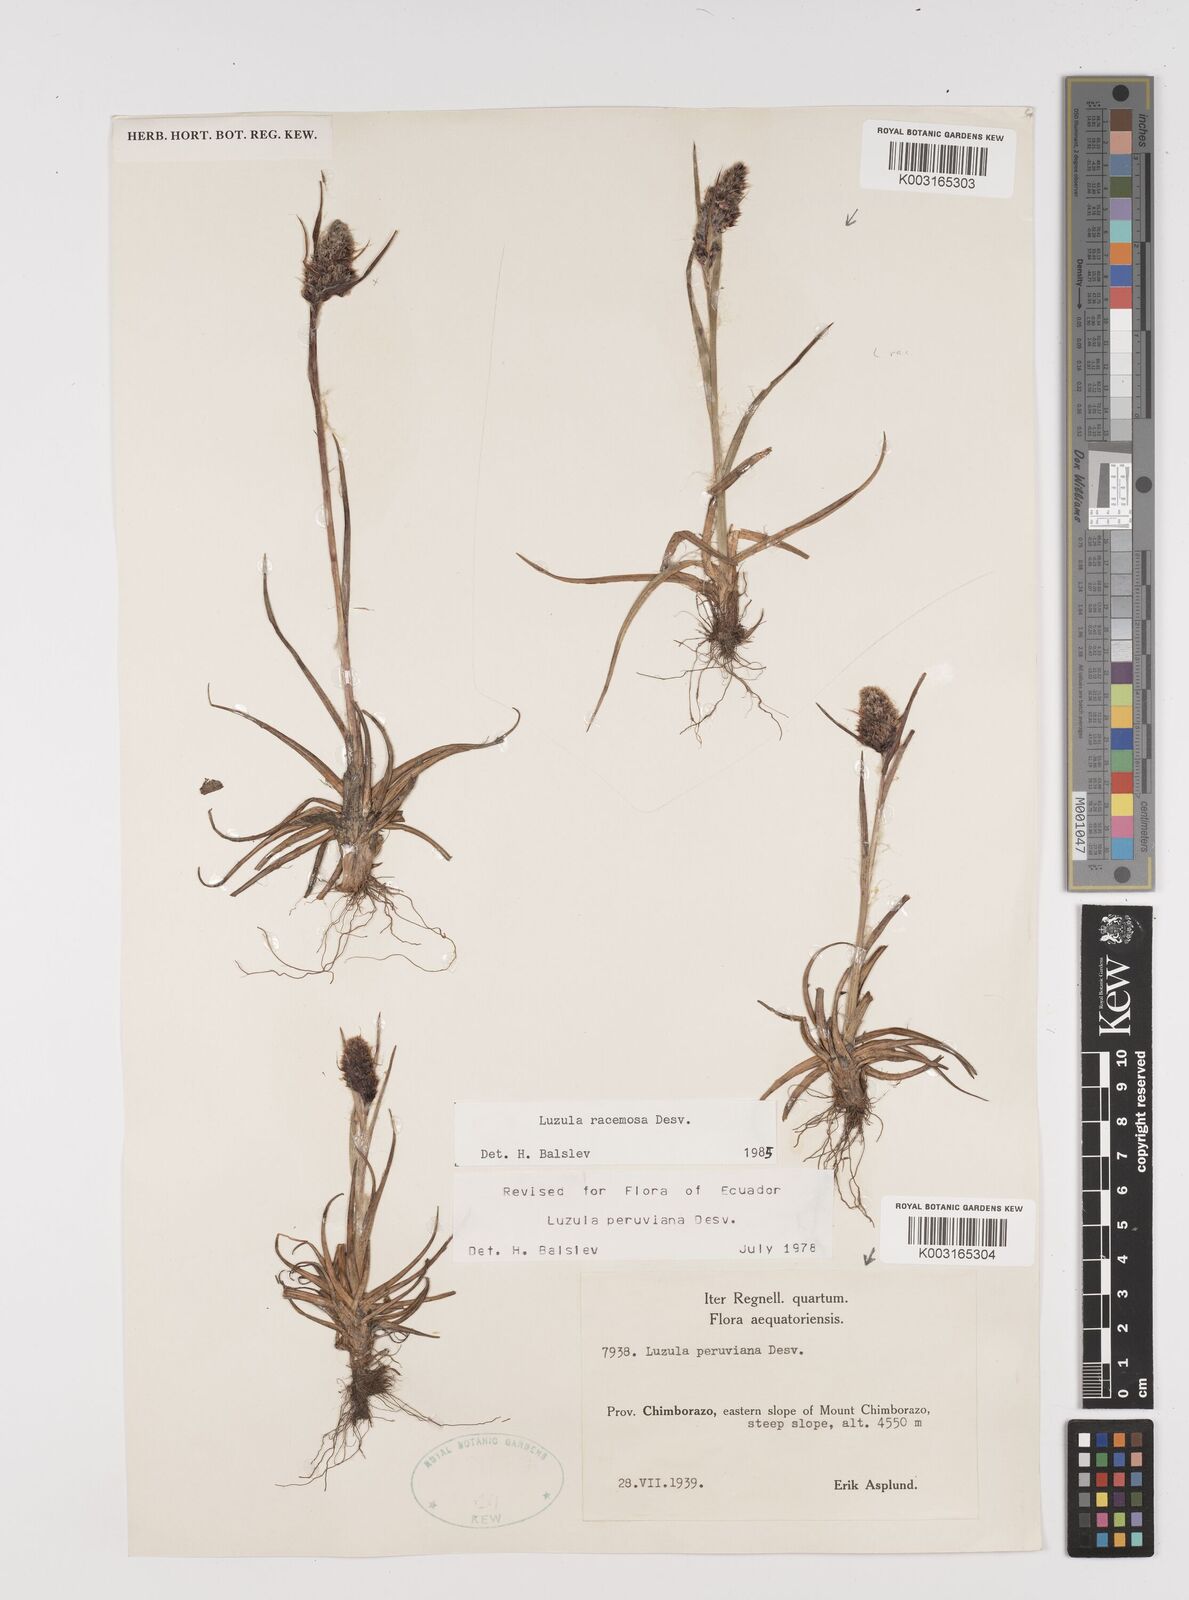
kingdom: Plantae
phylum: Tracheophyta
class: Liliopsida
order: Poales
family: Juncaceae
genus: Luzula
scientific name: Luzula racemosa
